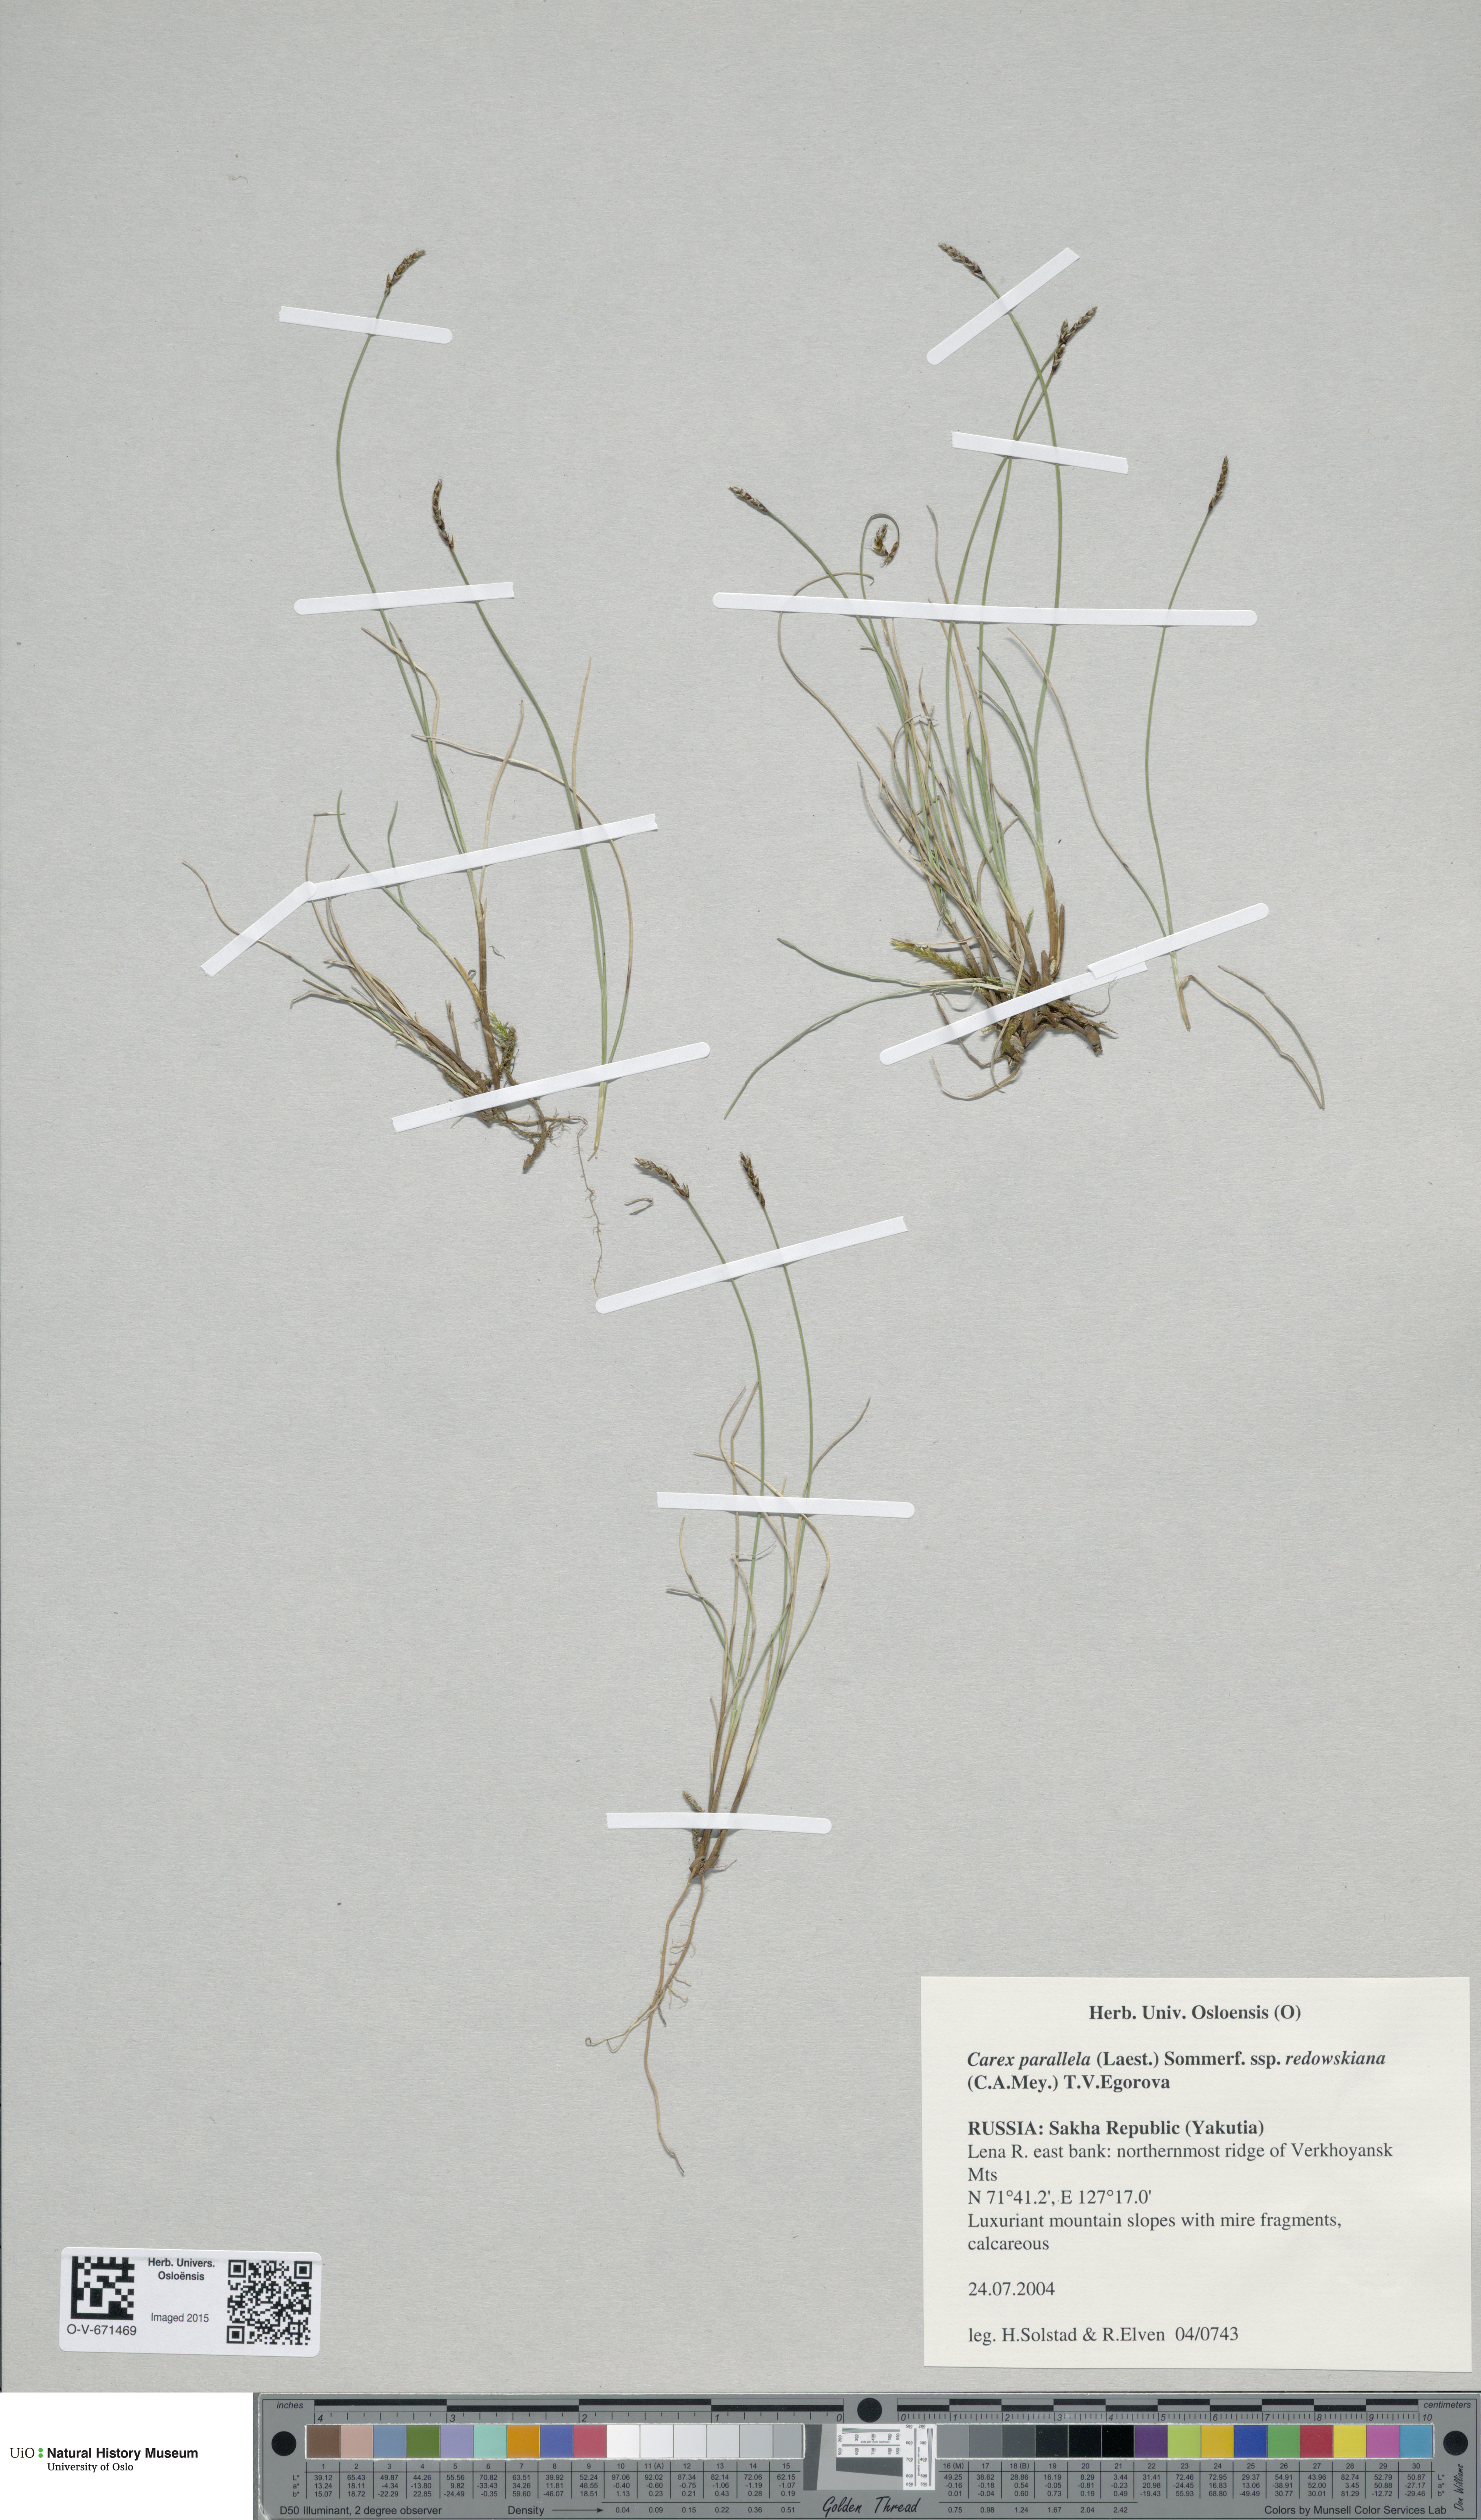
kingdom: Plantae
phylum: Tracheophyta
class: Liliopsida
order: Poales
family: Cyperaceae
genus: Carex
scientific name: Carex parallela
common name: Parallel sedge
